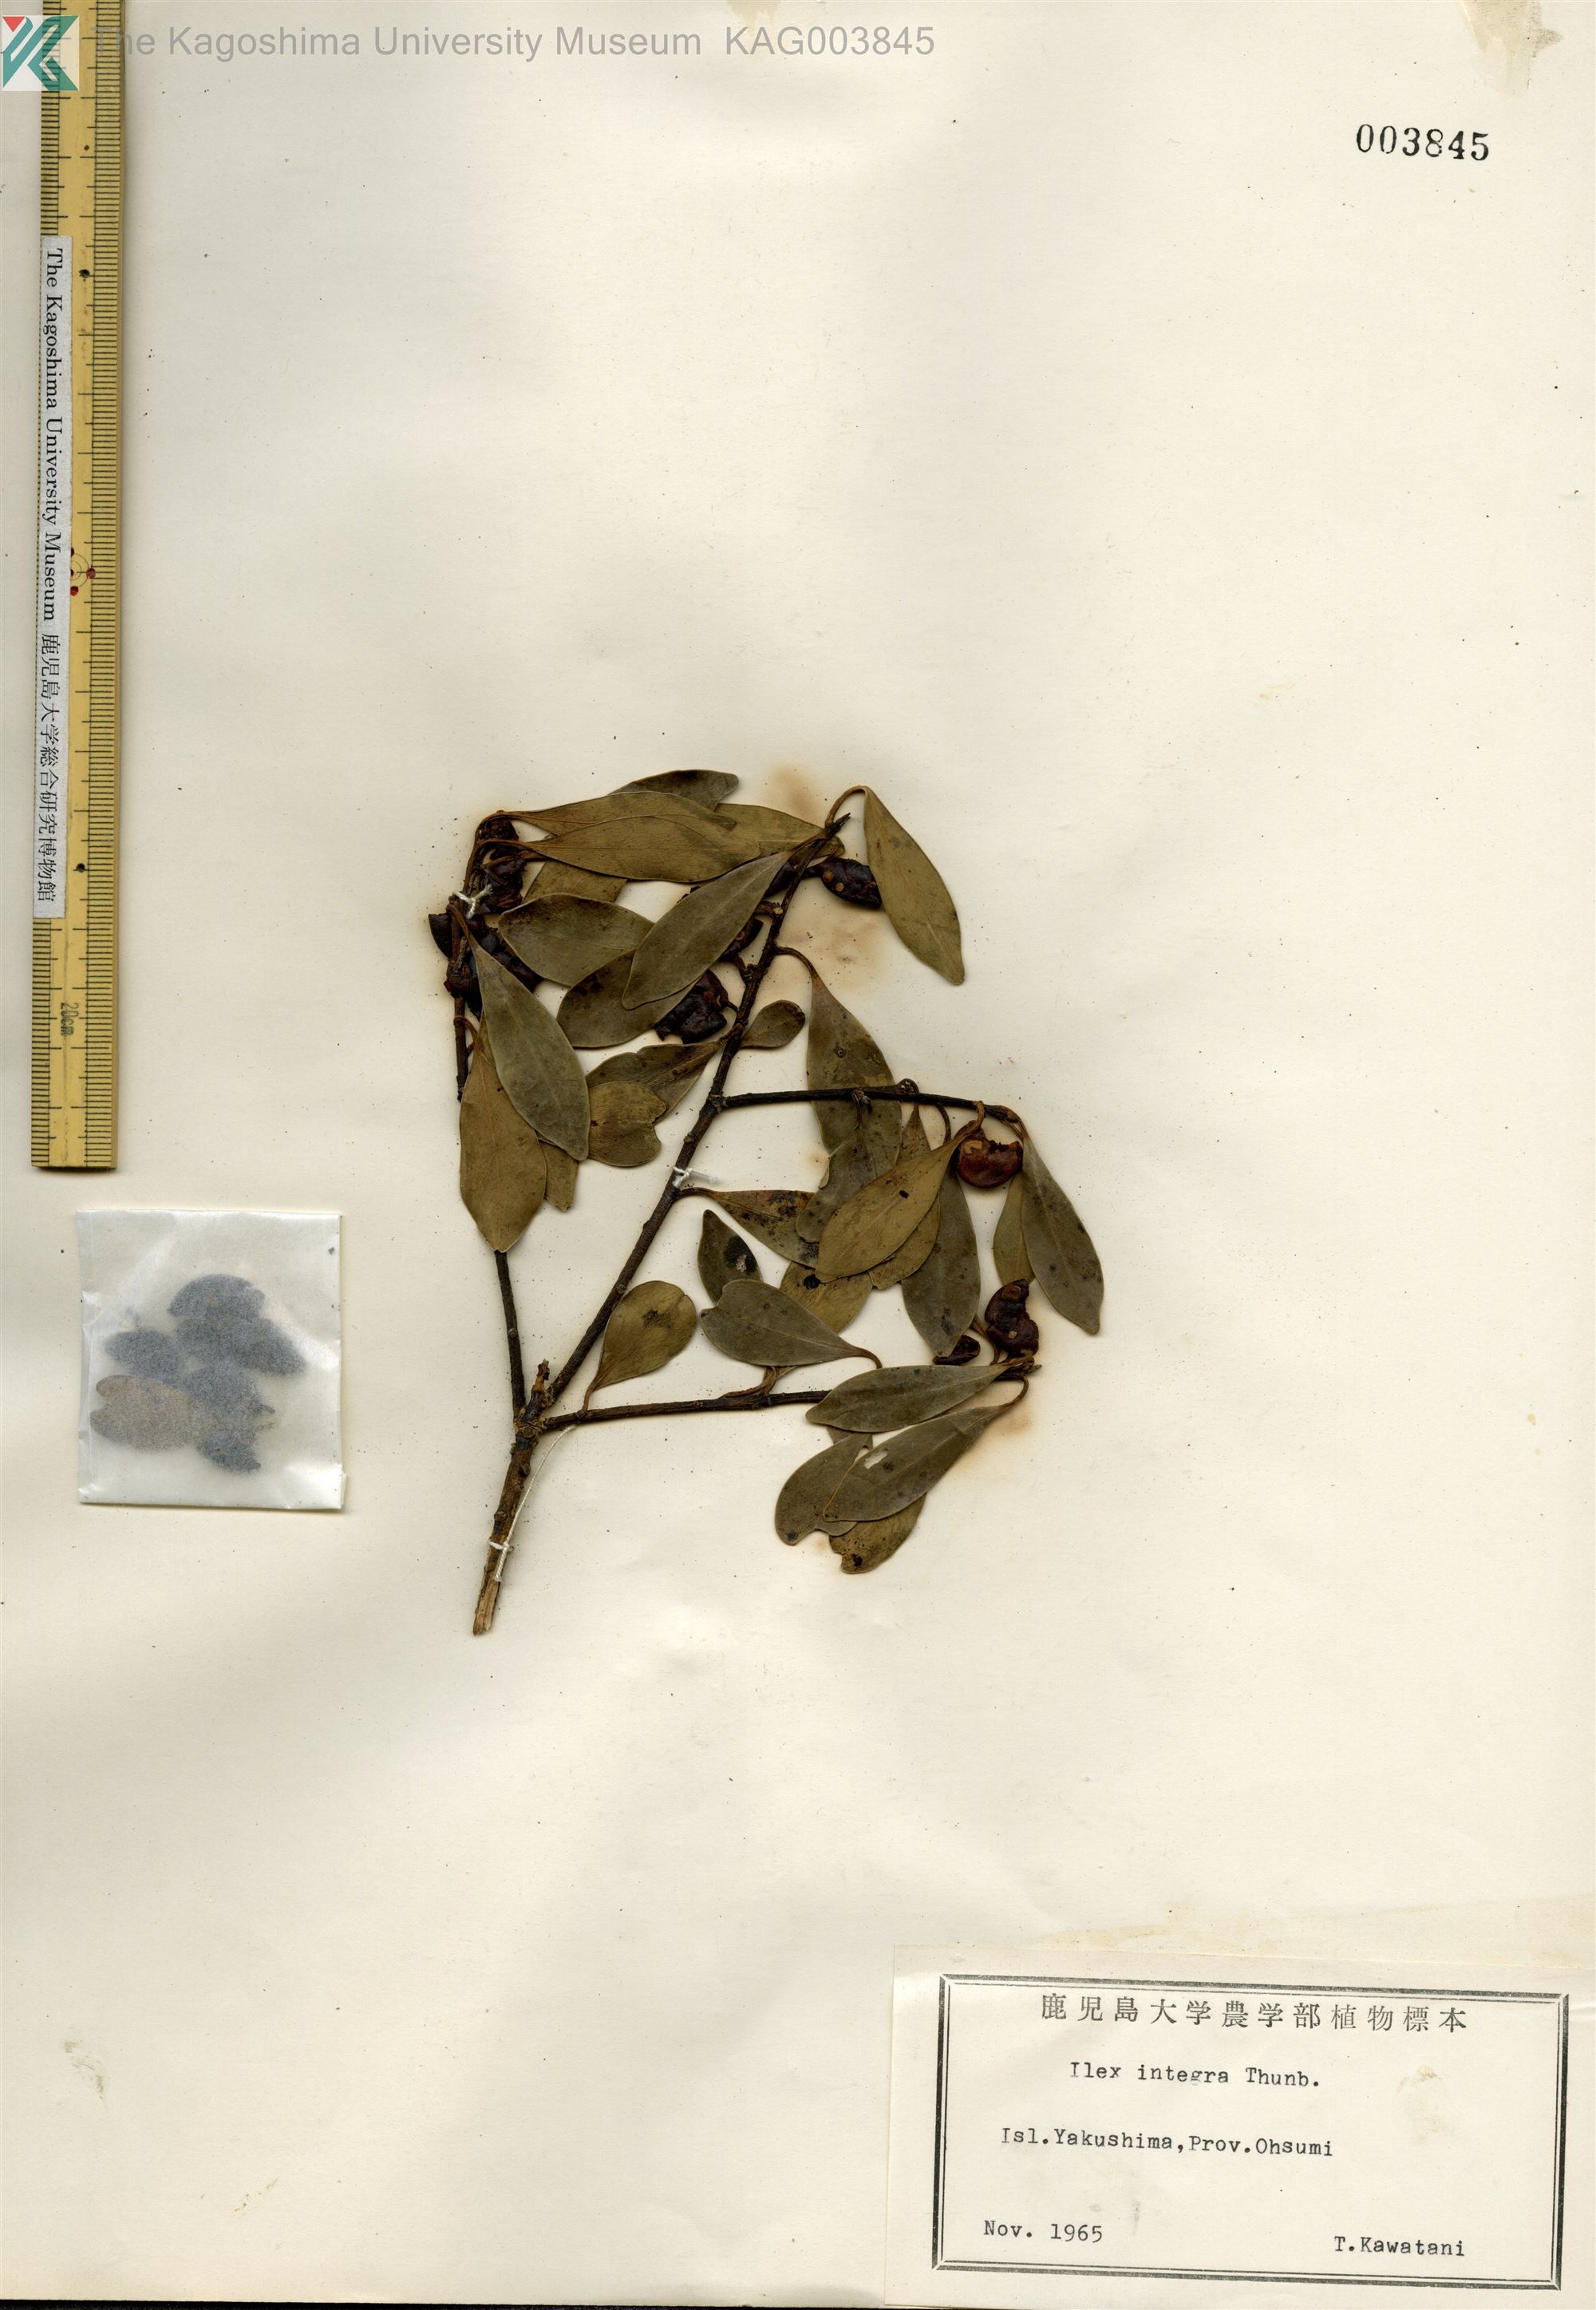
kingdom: Plantae
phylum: Tracheophyta
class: Magnoliopsida
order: Aquifoliales
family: Aquifoliaceae
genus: Ilex
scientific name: Ilex integra
